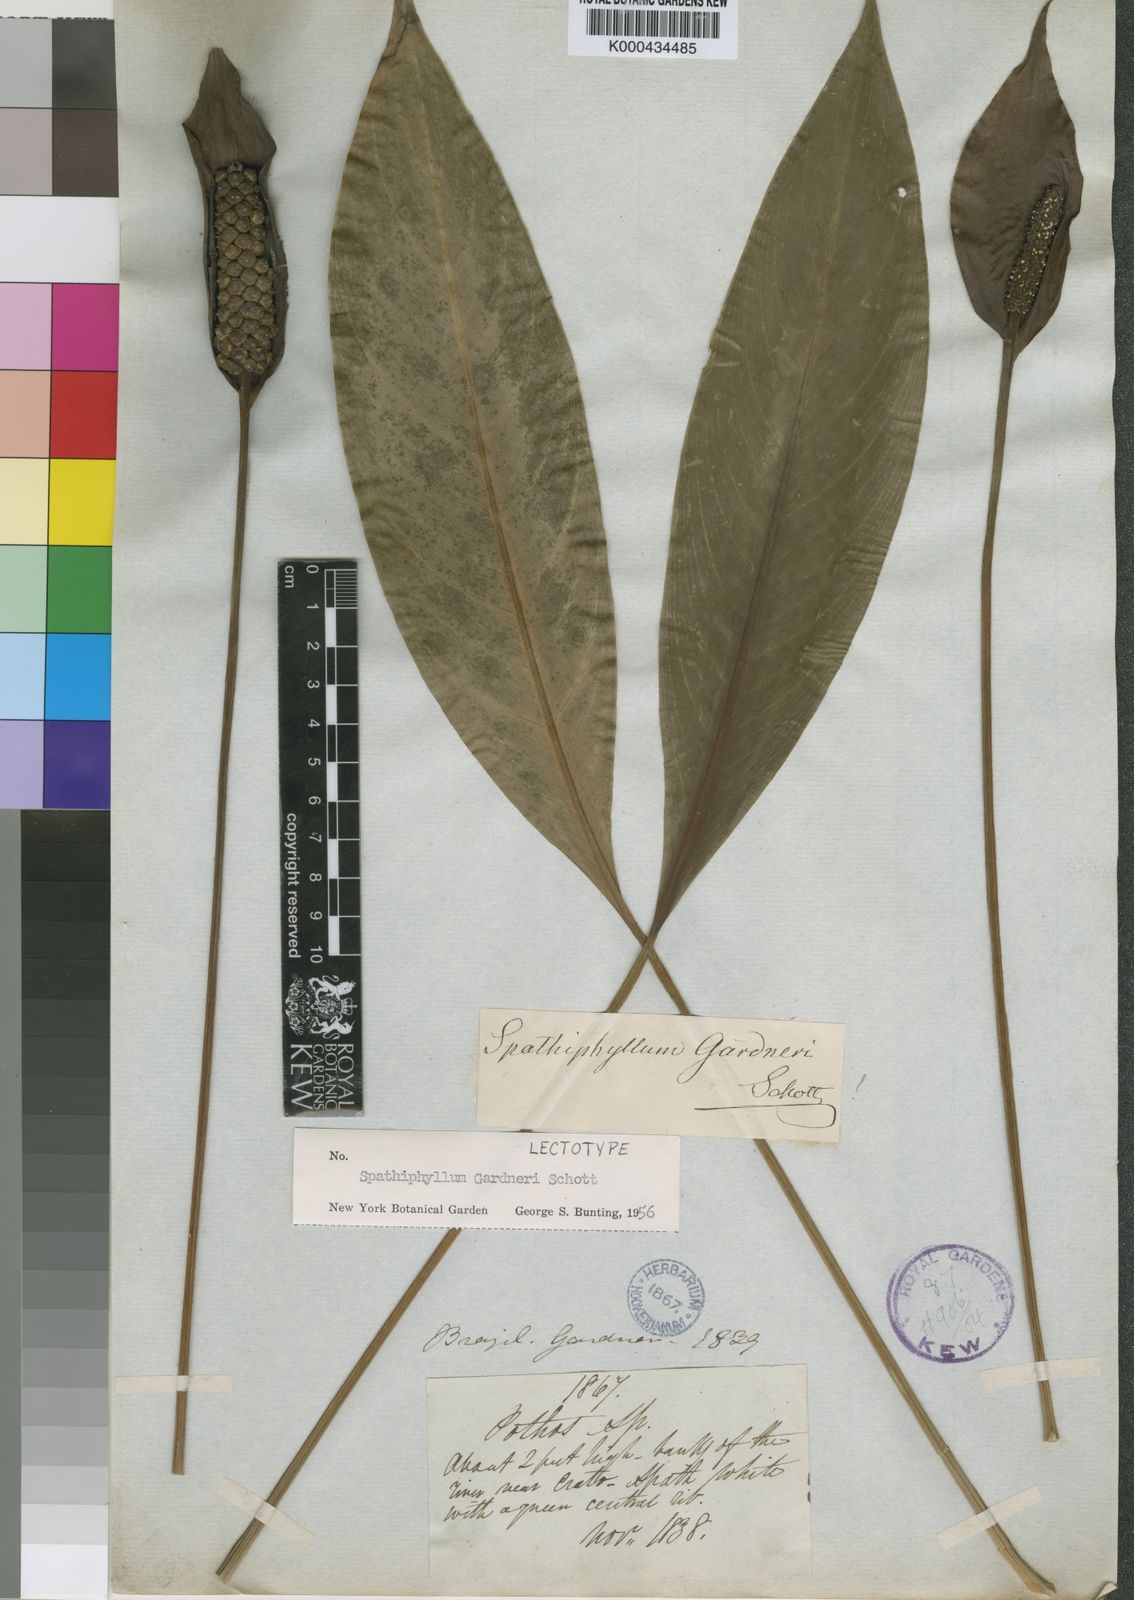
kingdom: Plantae
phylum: Tracheophyta
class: Liliopsida
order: Alismatales
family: Araceae
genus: Spathiphyllum
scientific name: Spathiphyllum gardneri
